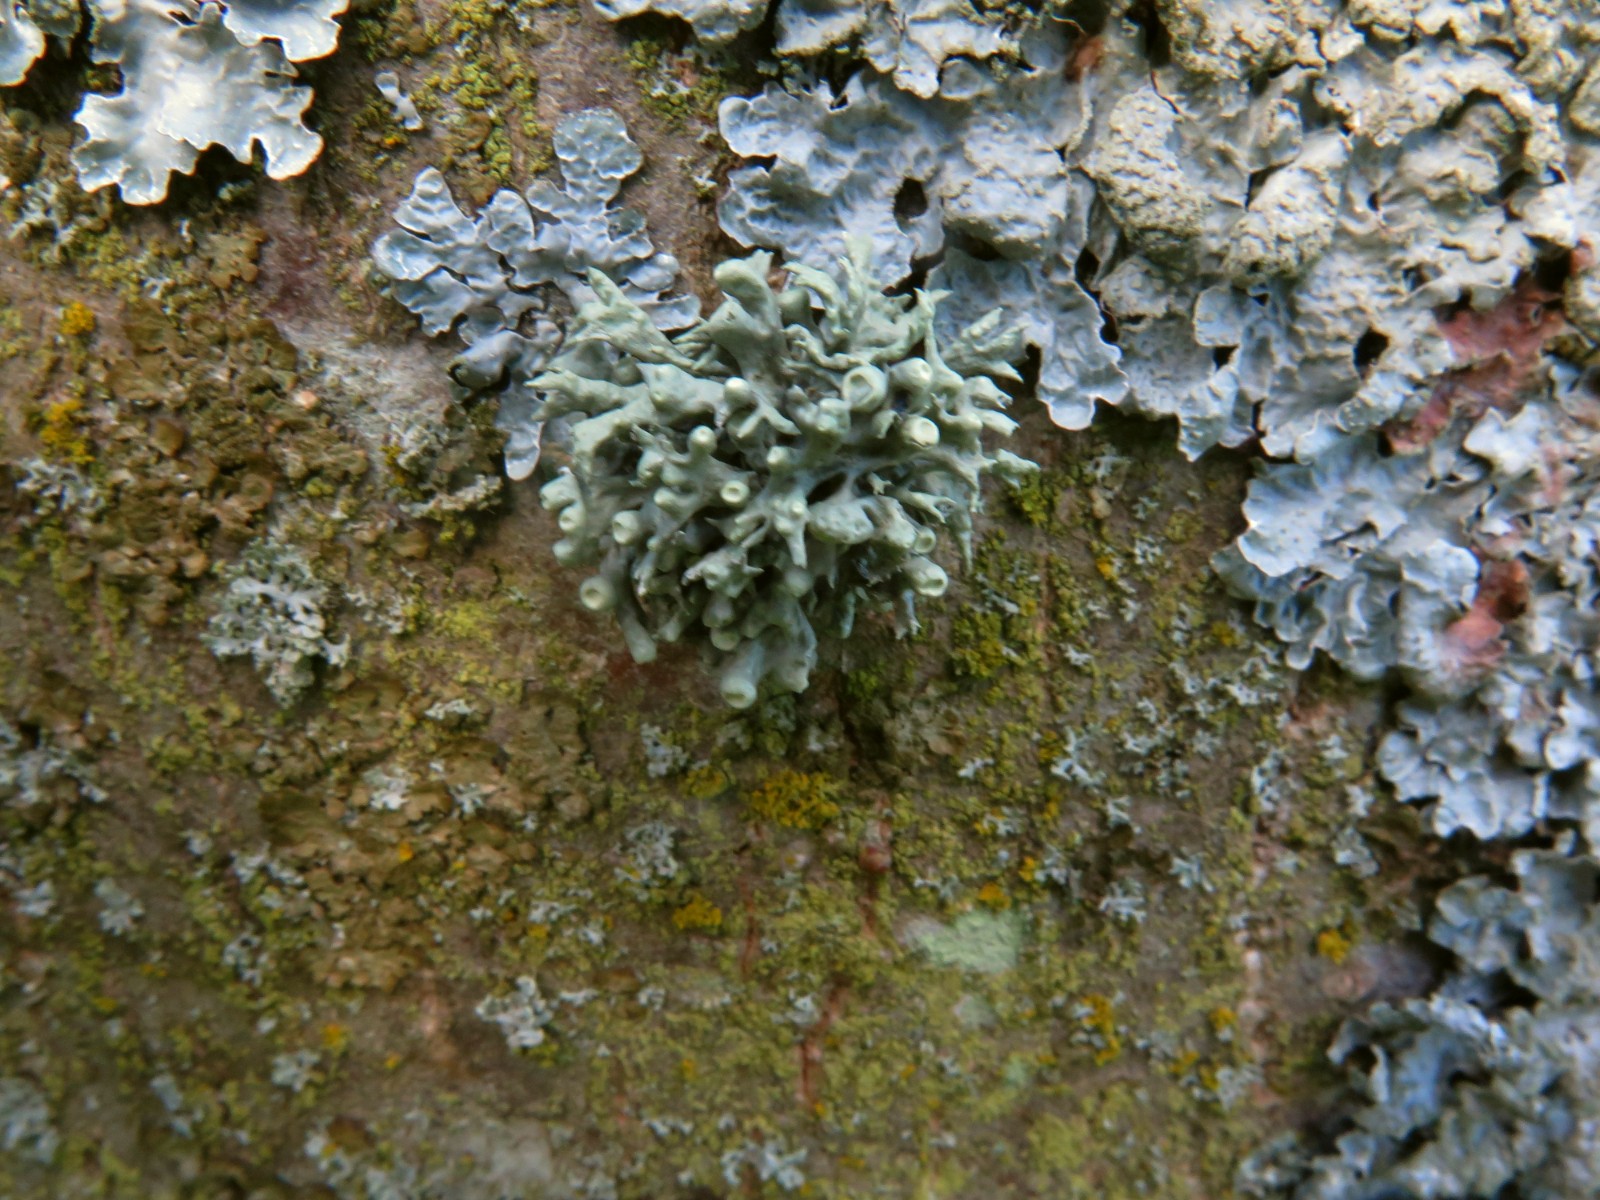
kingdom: Fungi
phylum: Ascomycota
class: Lecanoromycetes
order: Lecanorales
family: Ramalinaceae
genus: Ramalina
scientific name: Ramalina fastigiata
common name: tue-grenlav
